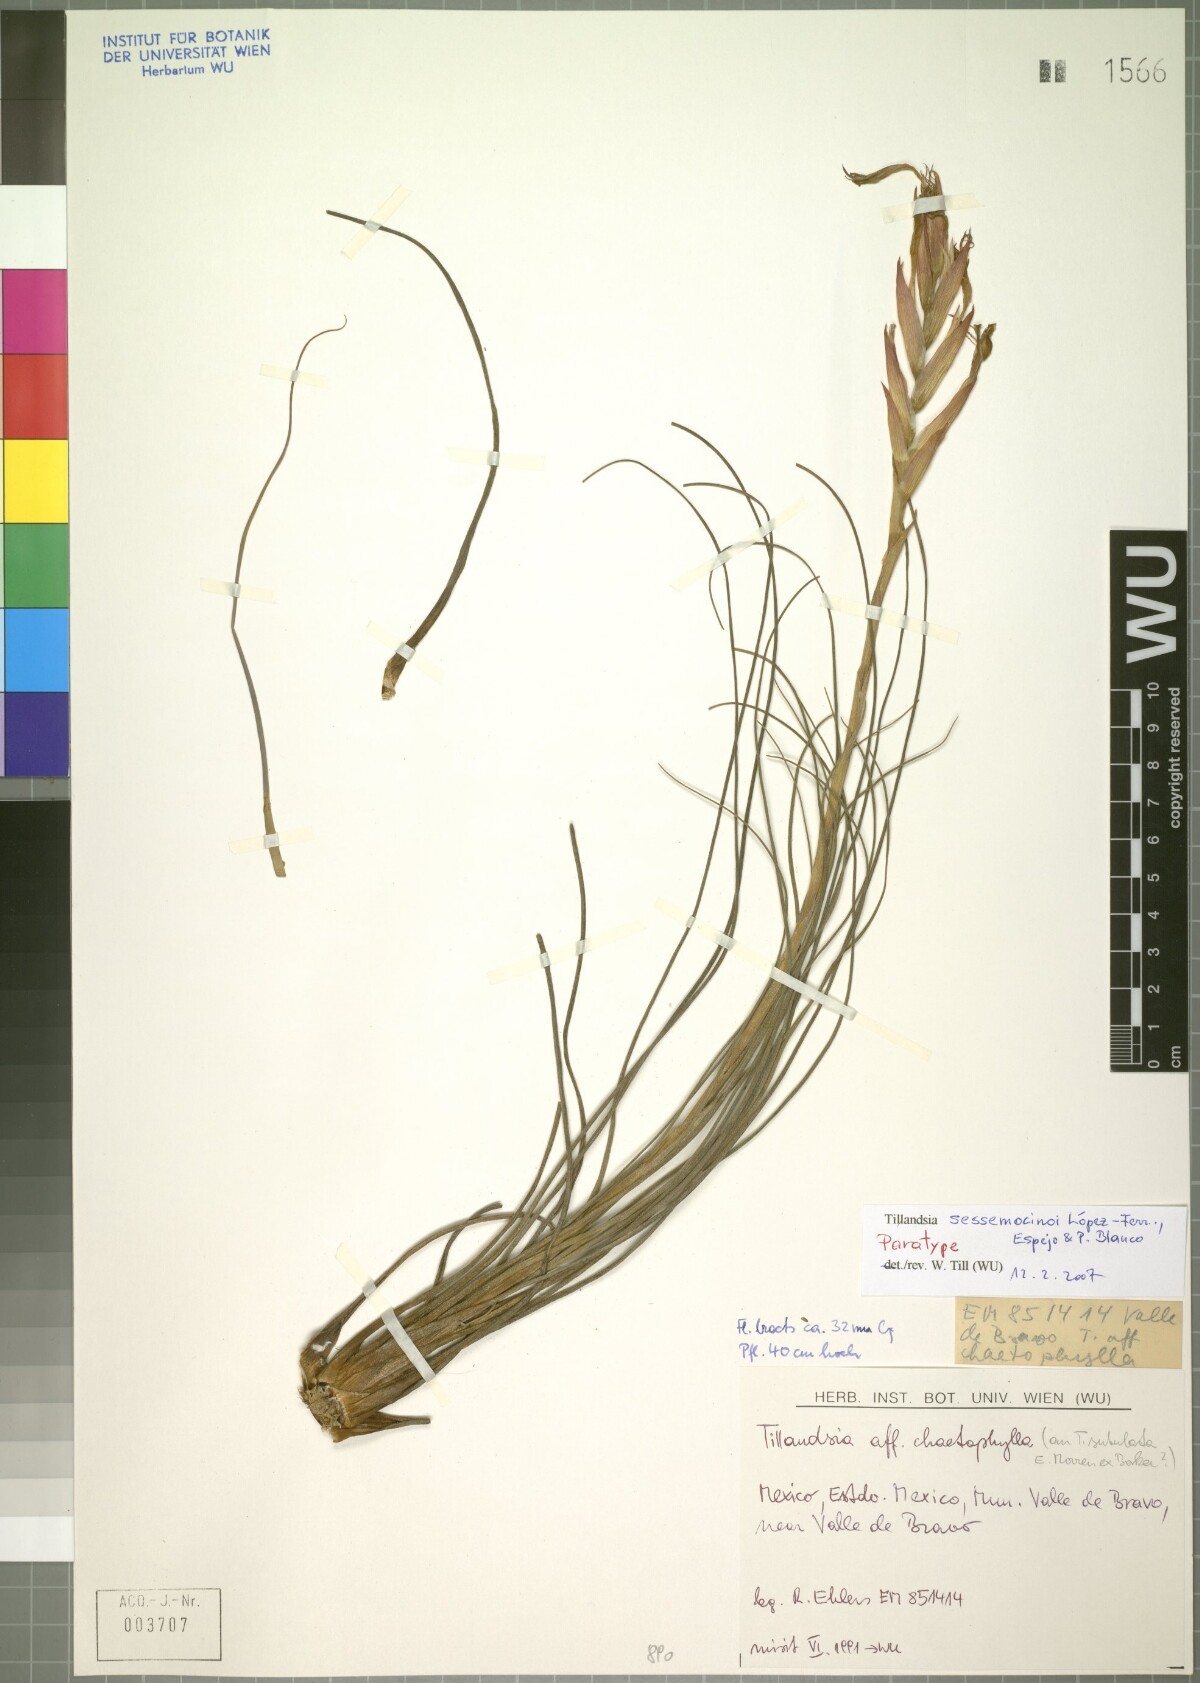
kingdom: Plantae
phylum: Tracheophyta
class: Liliopsida
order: Poales
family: Bromeliaceae
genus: Tillandsia
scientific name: Tillandsia sessemocinoi
